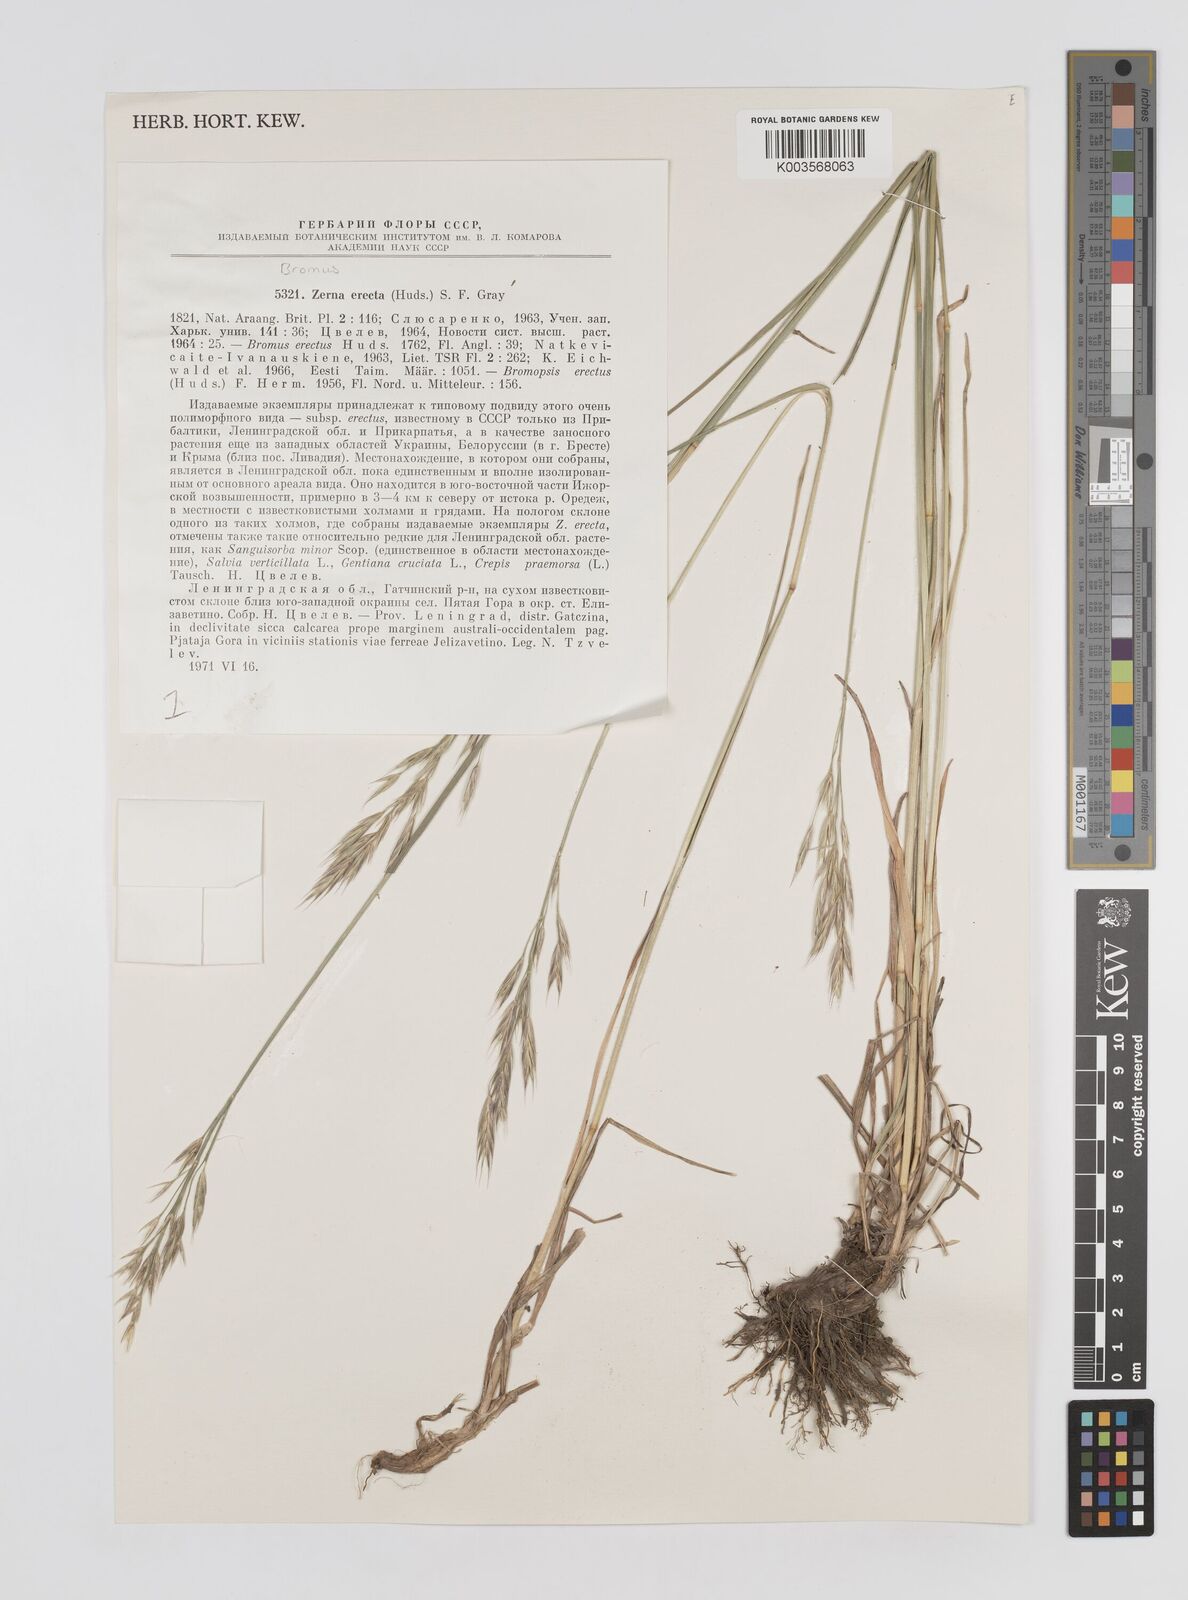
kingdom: Plantae
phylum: Tracheophyta
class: Liliopsida
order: Poales
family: Poaceae
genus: Bromus
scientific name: Bromus erectus
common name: Erect brome
